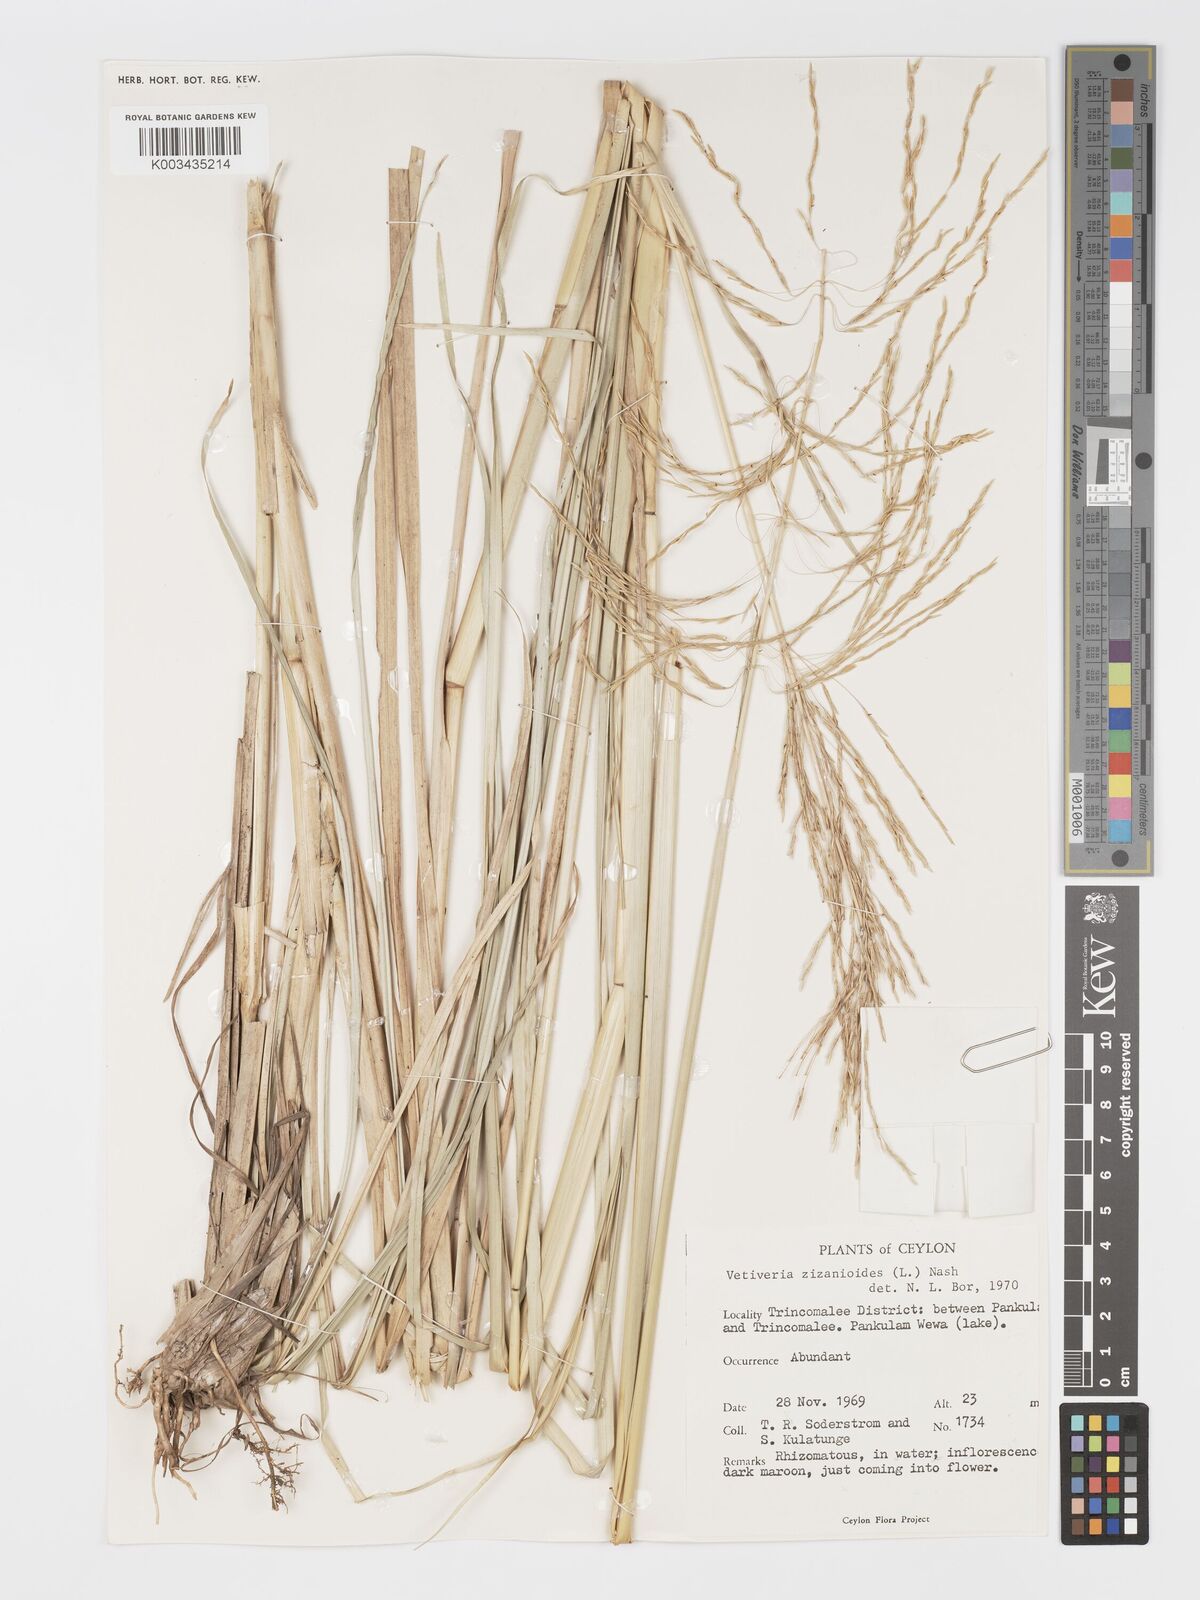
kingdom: Plantae
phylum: Tracheophyta
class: Liliopsida
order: Poales
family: Poaceae
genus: Chrysopogon
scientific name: Chrysopogon zizanioides
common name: False beardgrass
